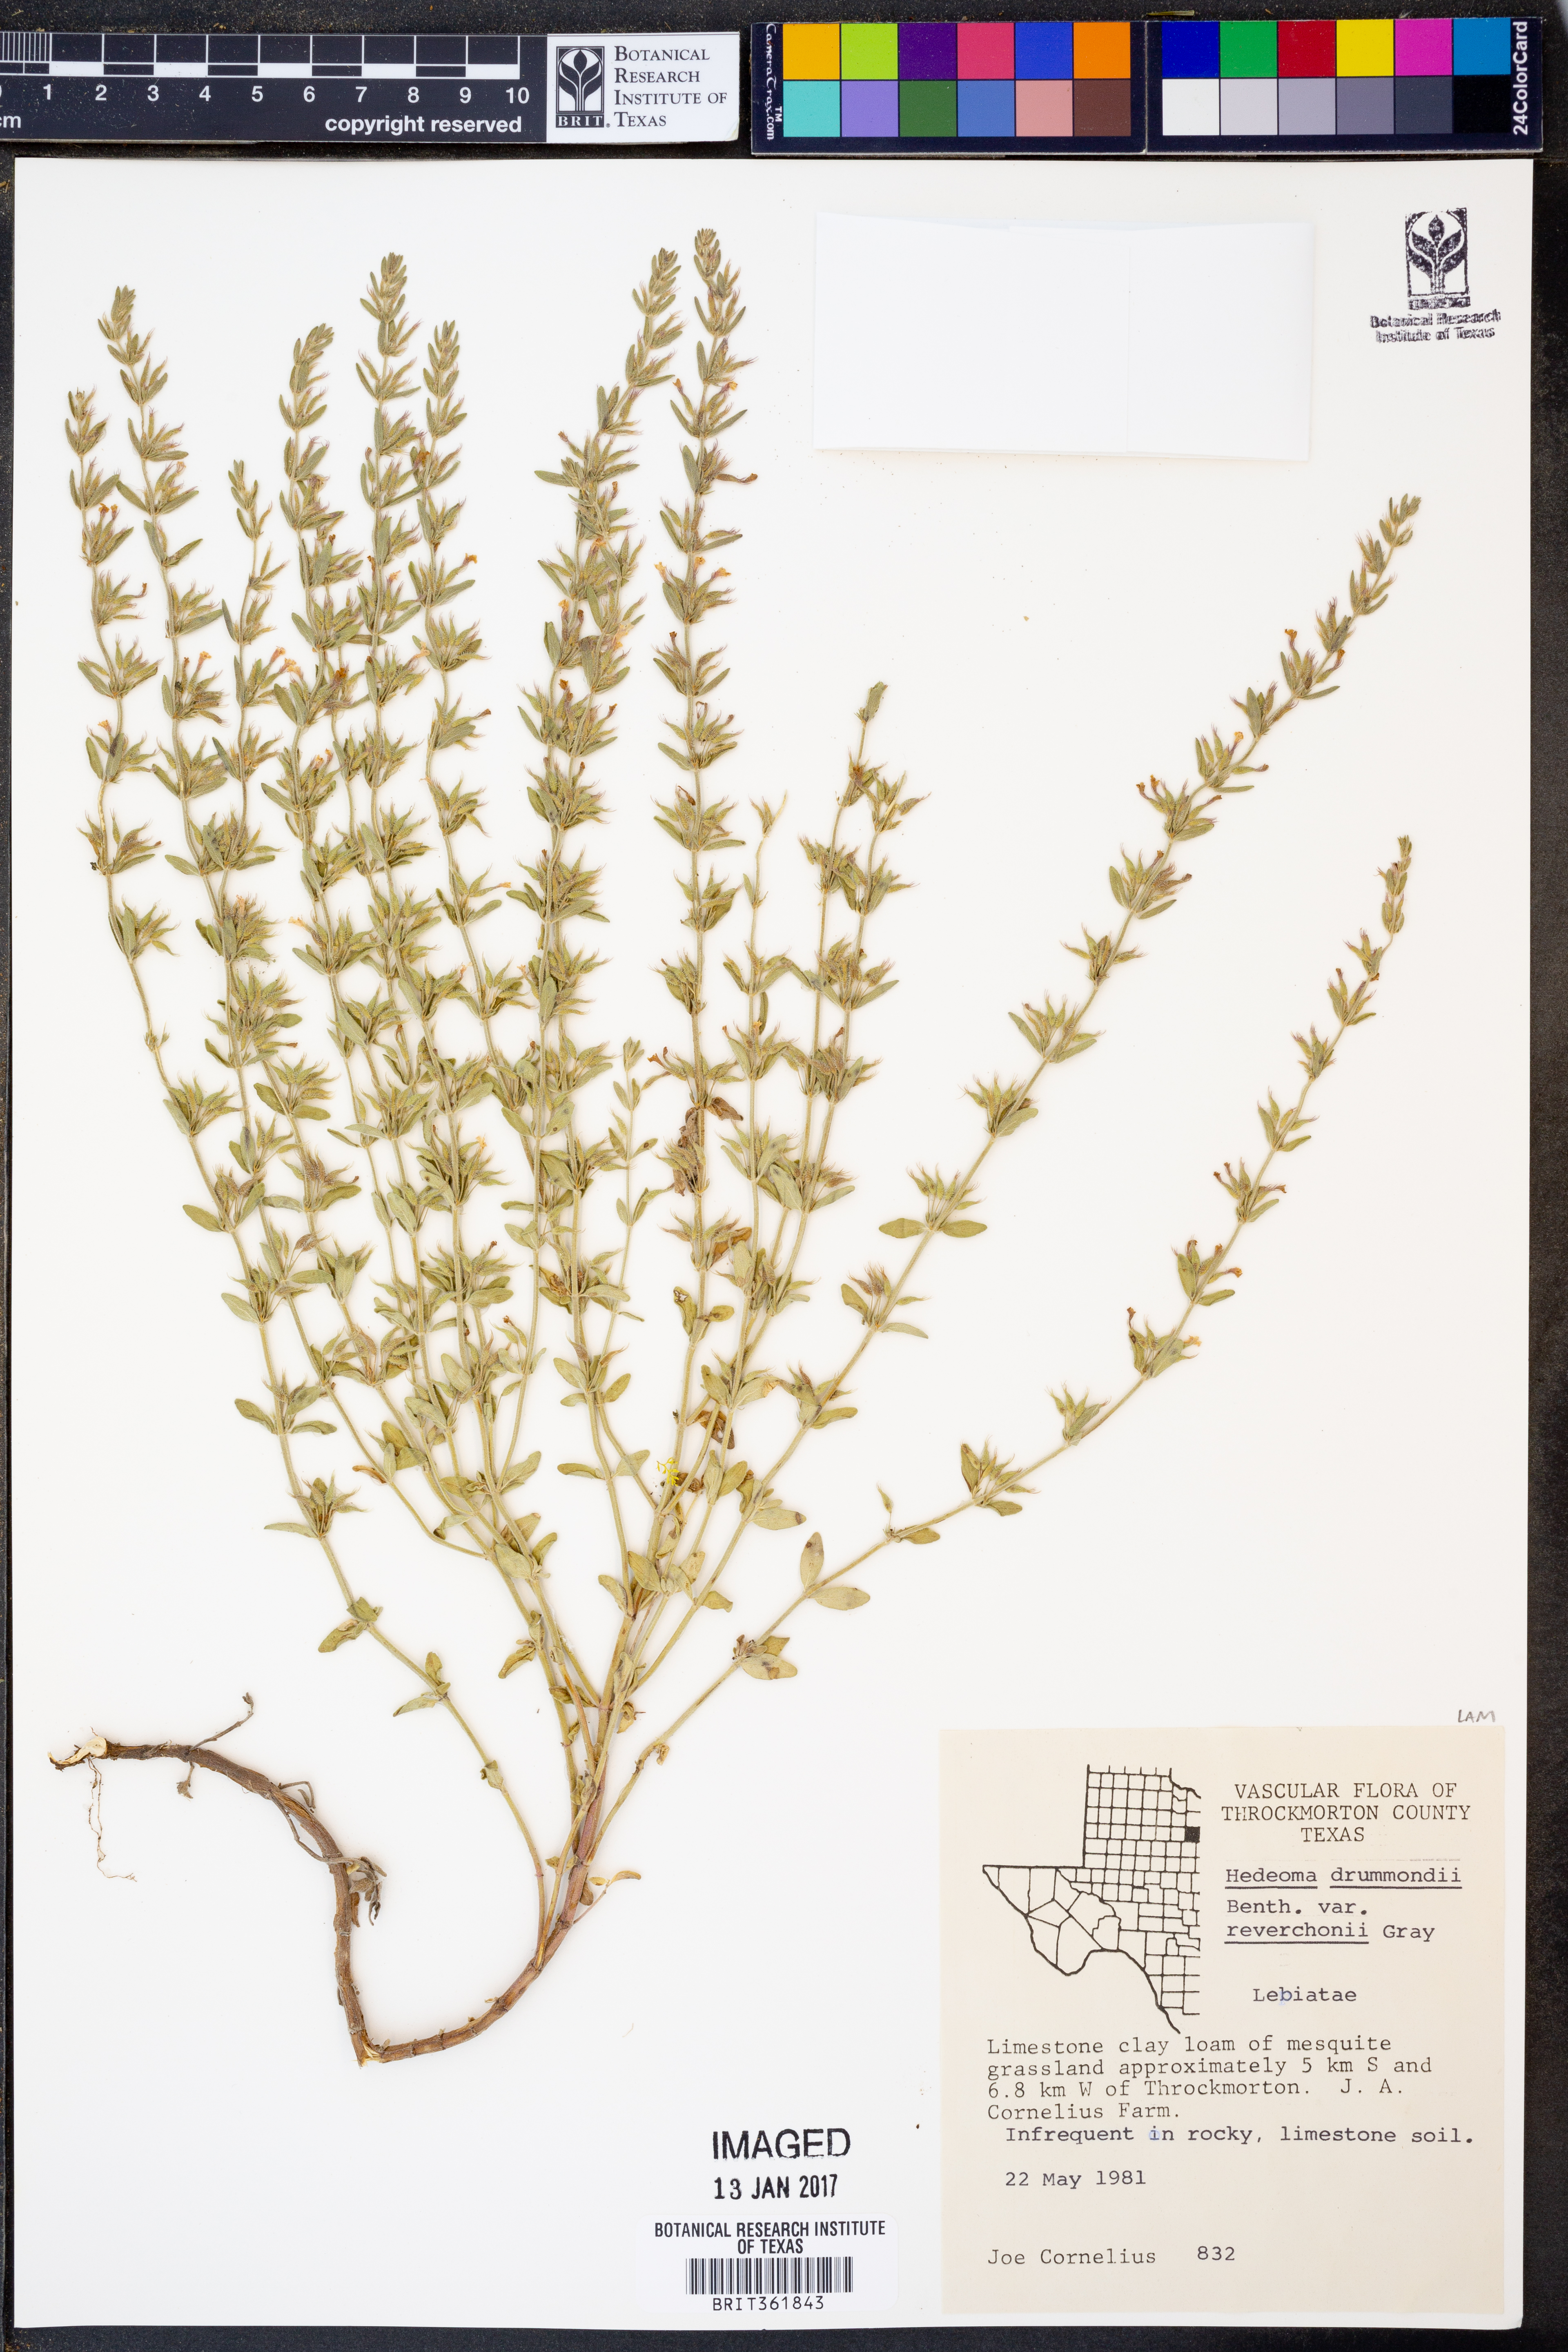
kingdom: Plantae
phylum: Tracheophyta
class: Magnoliopsida
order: Lamiales
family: Lamiaceae
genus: Hedeoma
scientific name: Hedeoma drummondii
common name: New mexico pennyroyal
